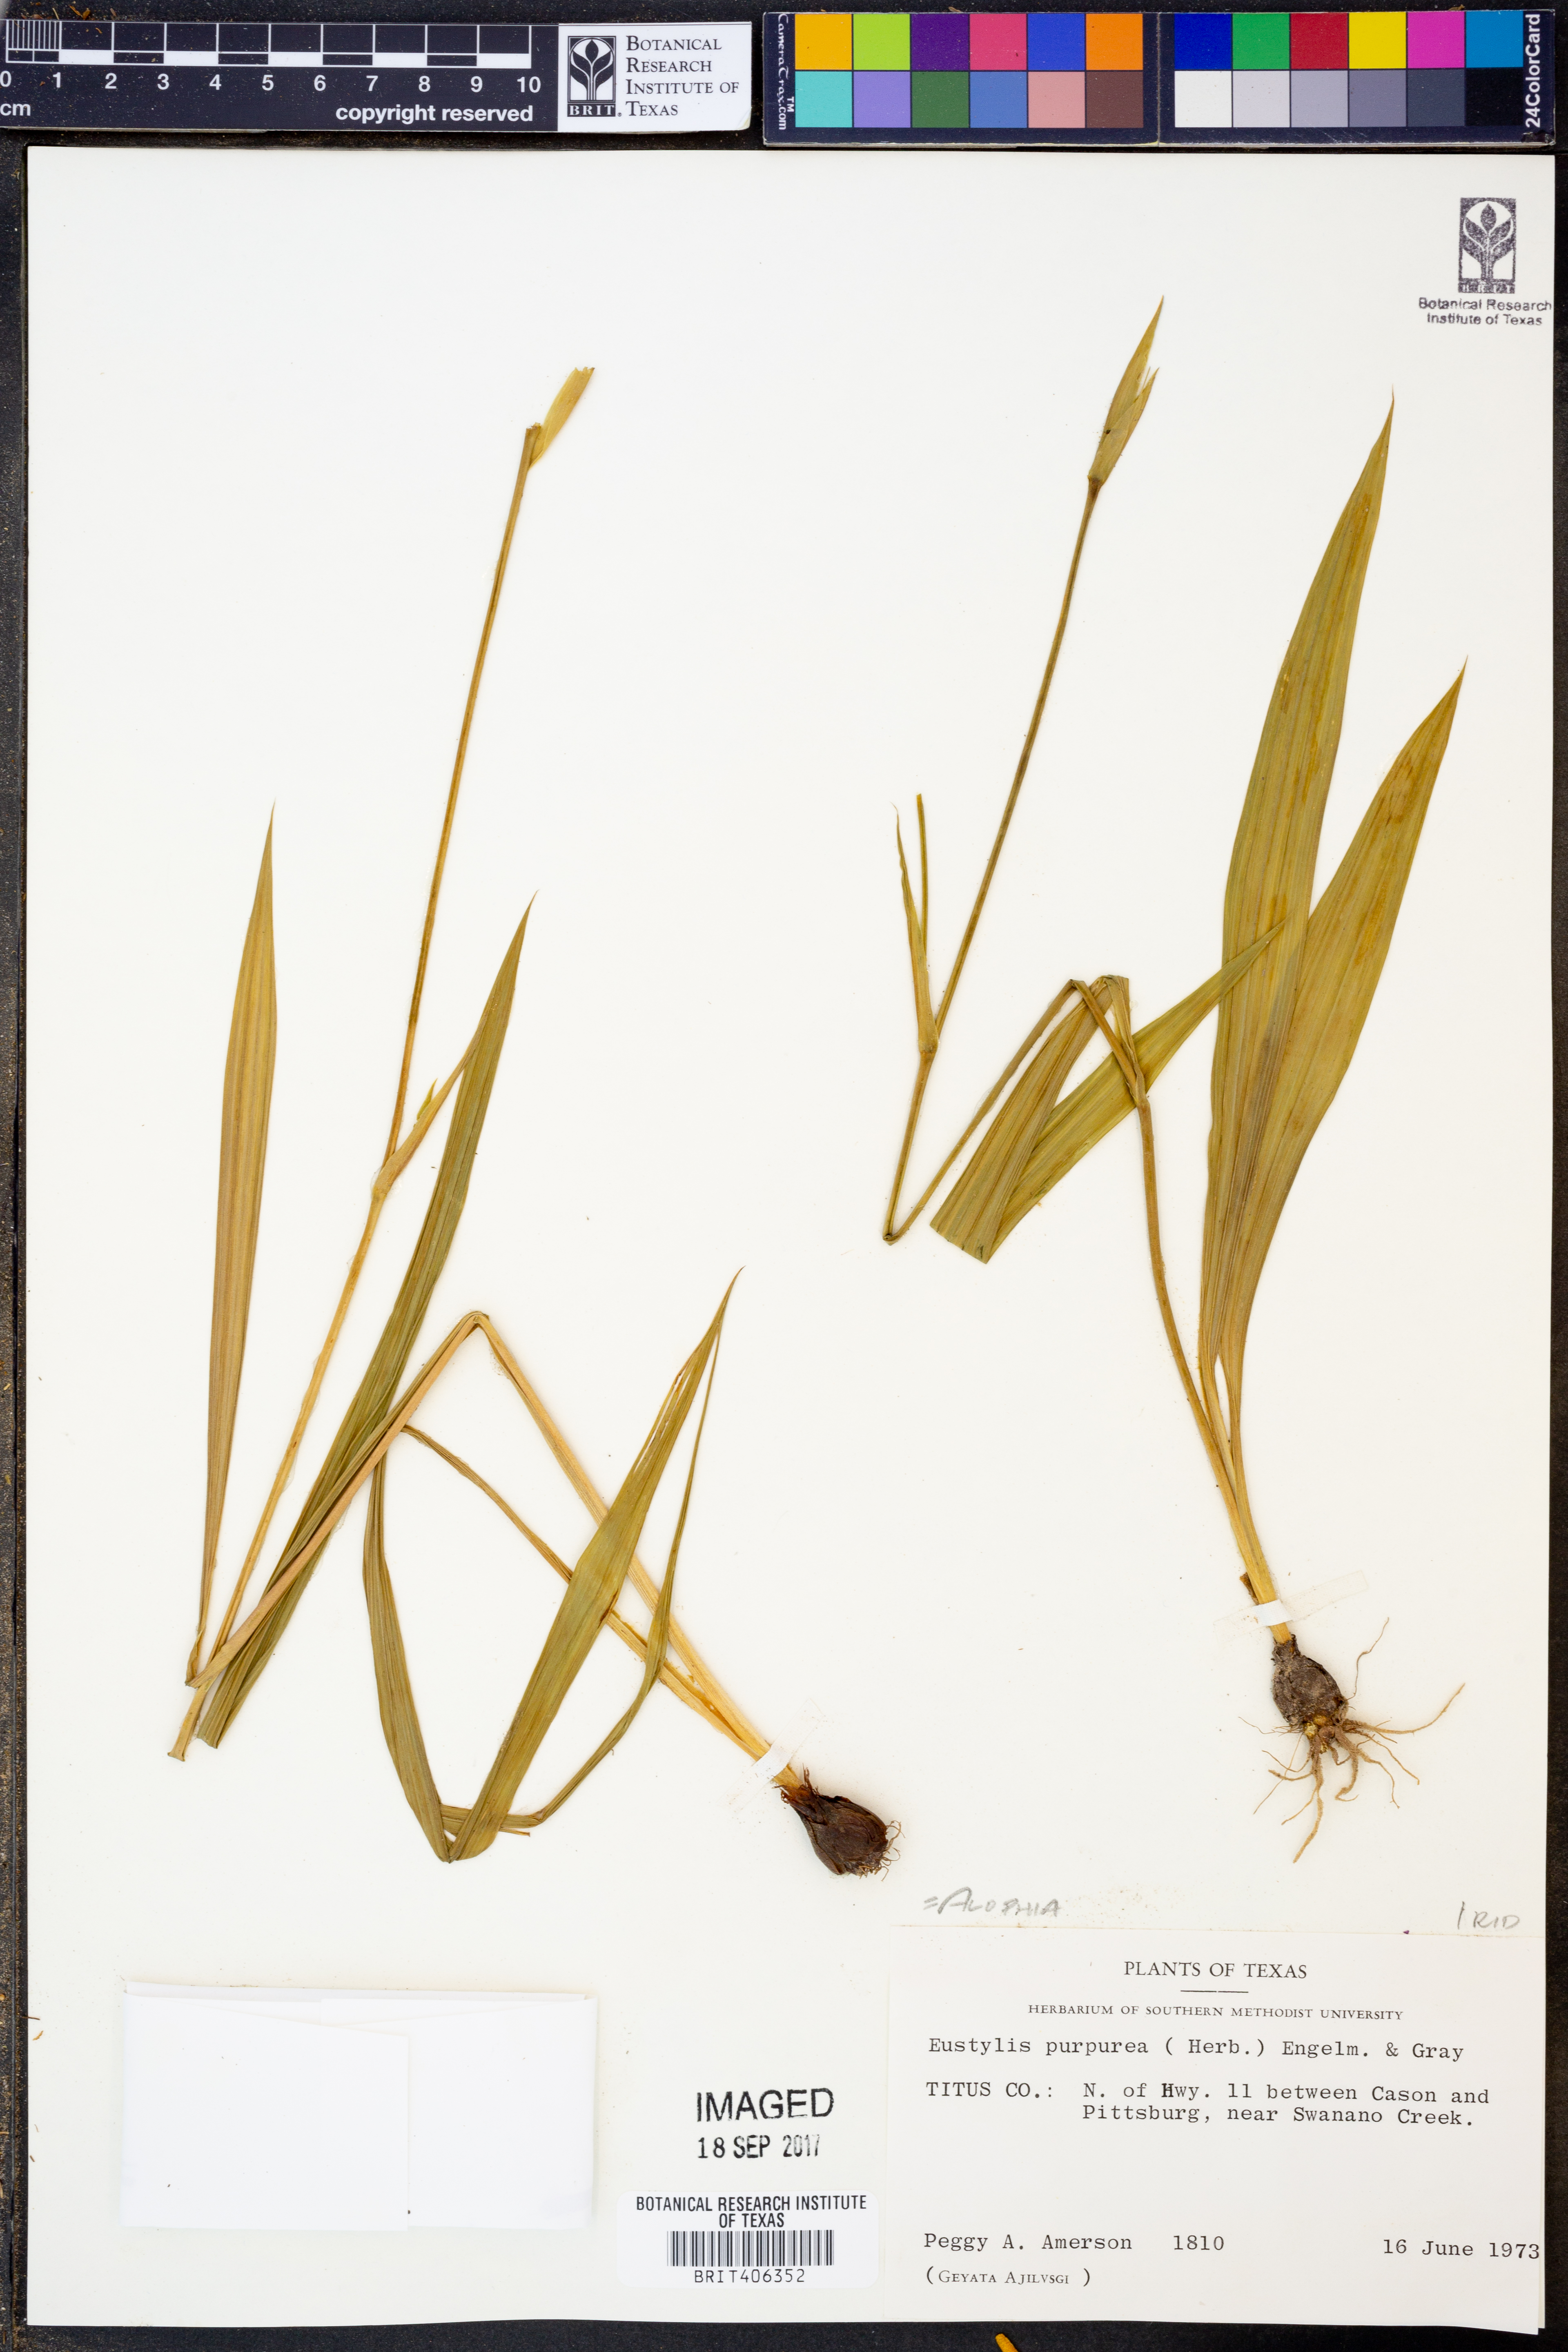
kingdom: Plantae
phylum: Tracheophyta
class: Liliopsida
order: Asparagales
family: Iridaceae
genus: Alophia
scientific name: Alophia drummondii
